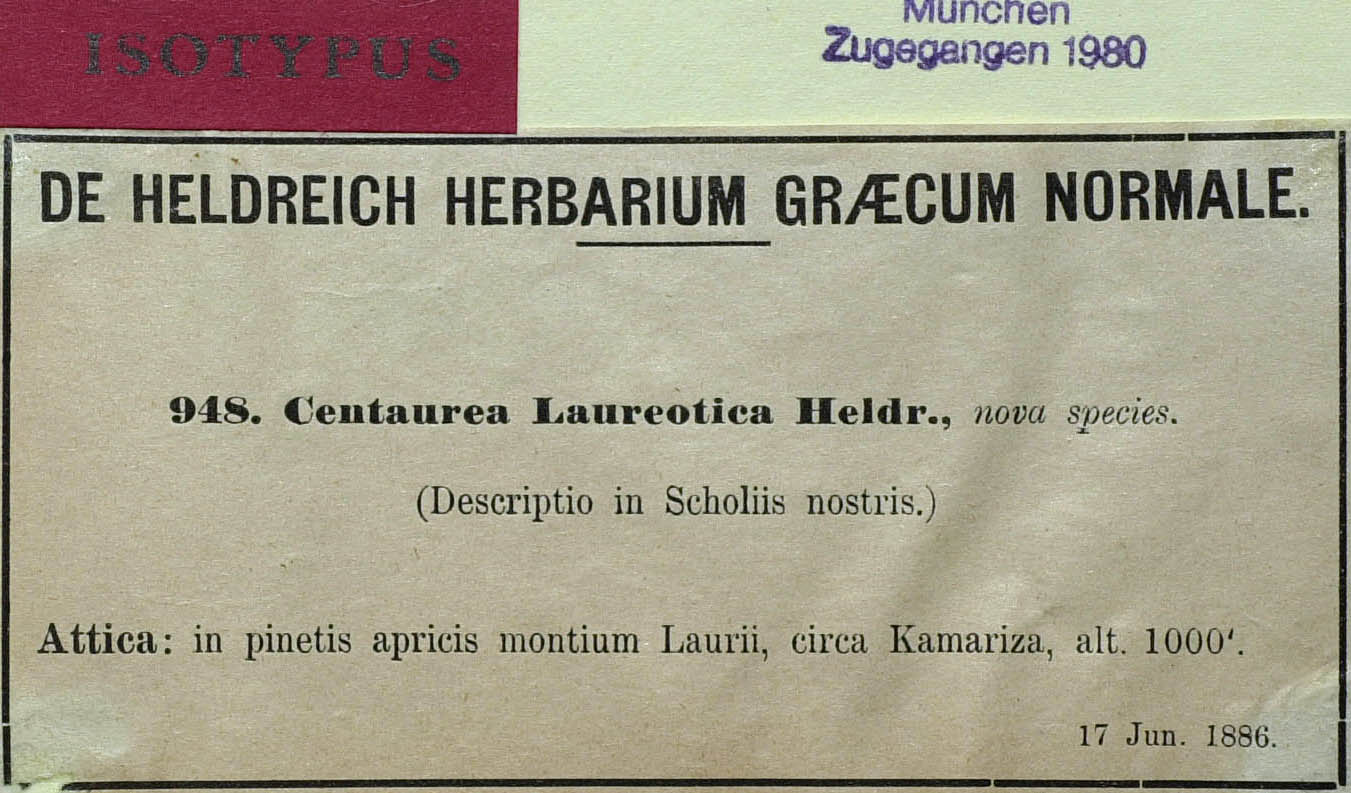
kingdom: Plantae
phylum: Tracheophyta
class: Magnoliopsida
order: Asterales
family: Asteraceae
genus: Centaurea
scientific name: Centaurea laureotica
